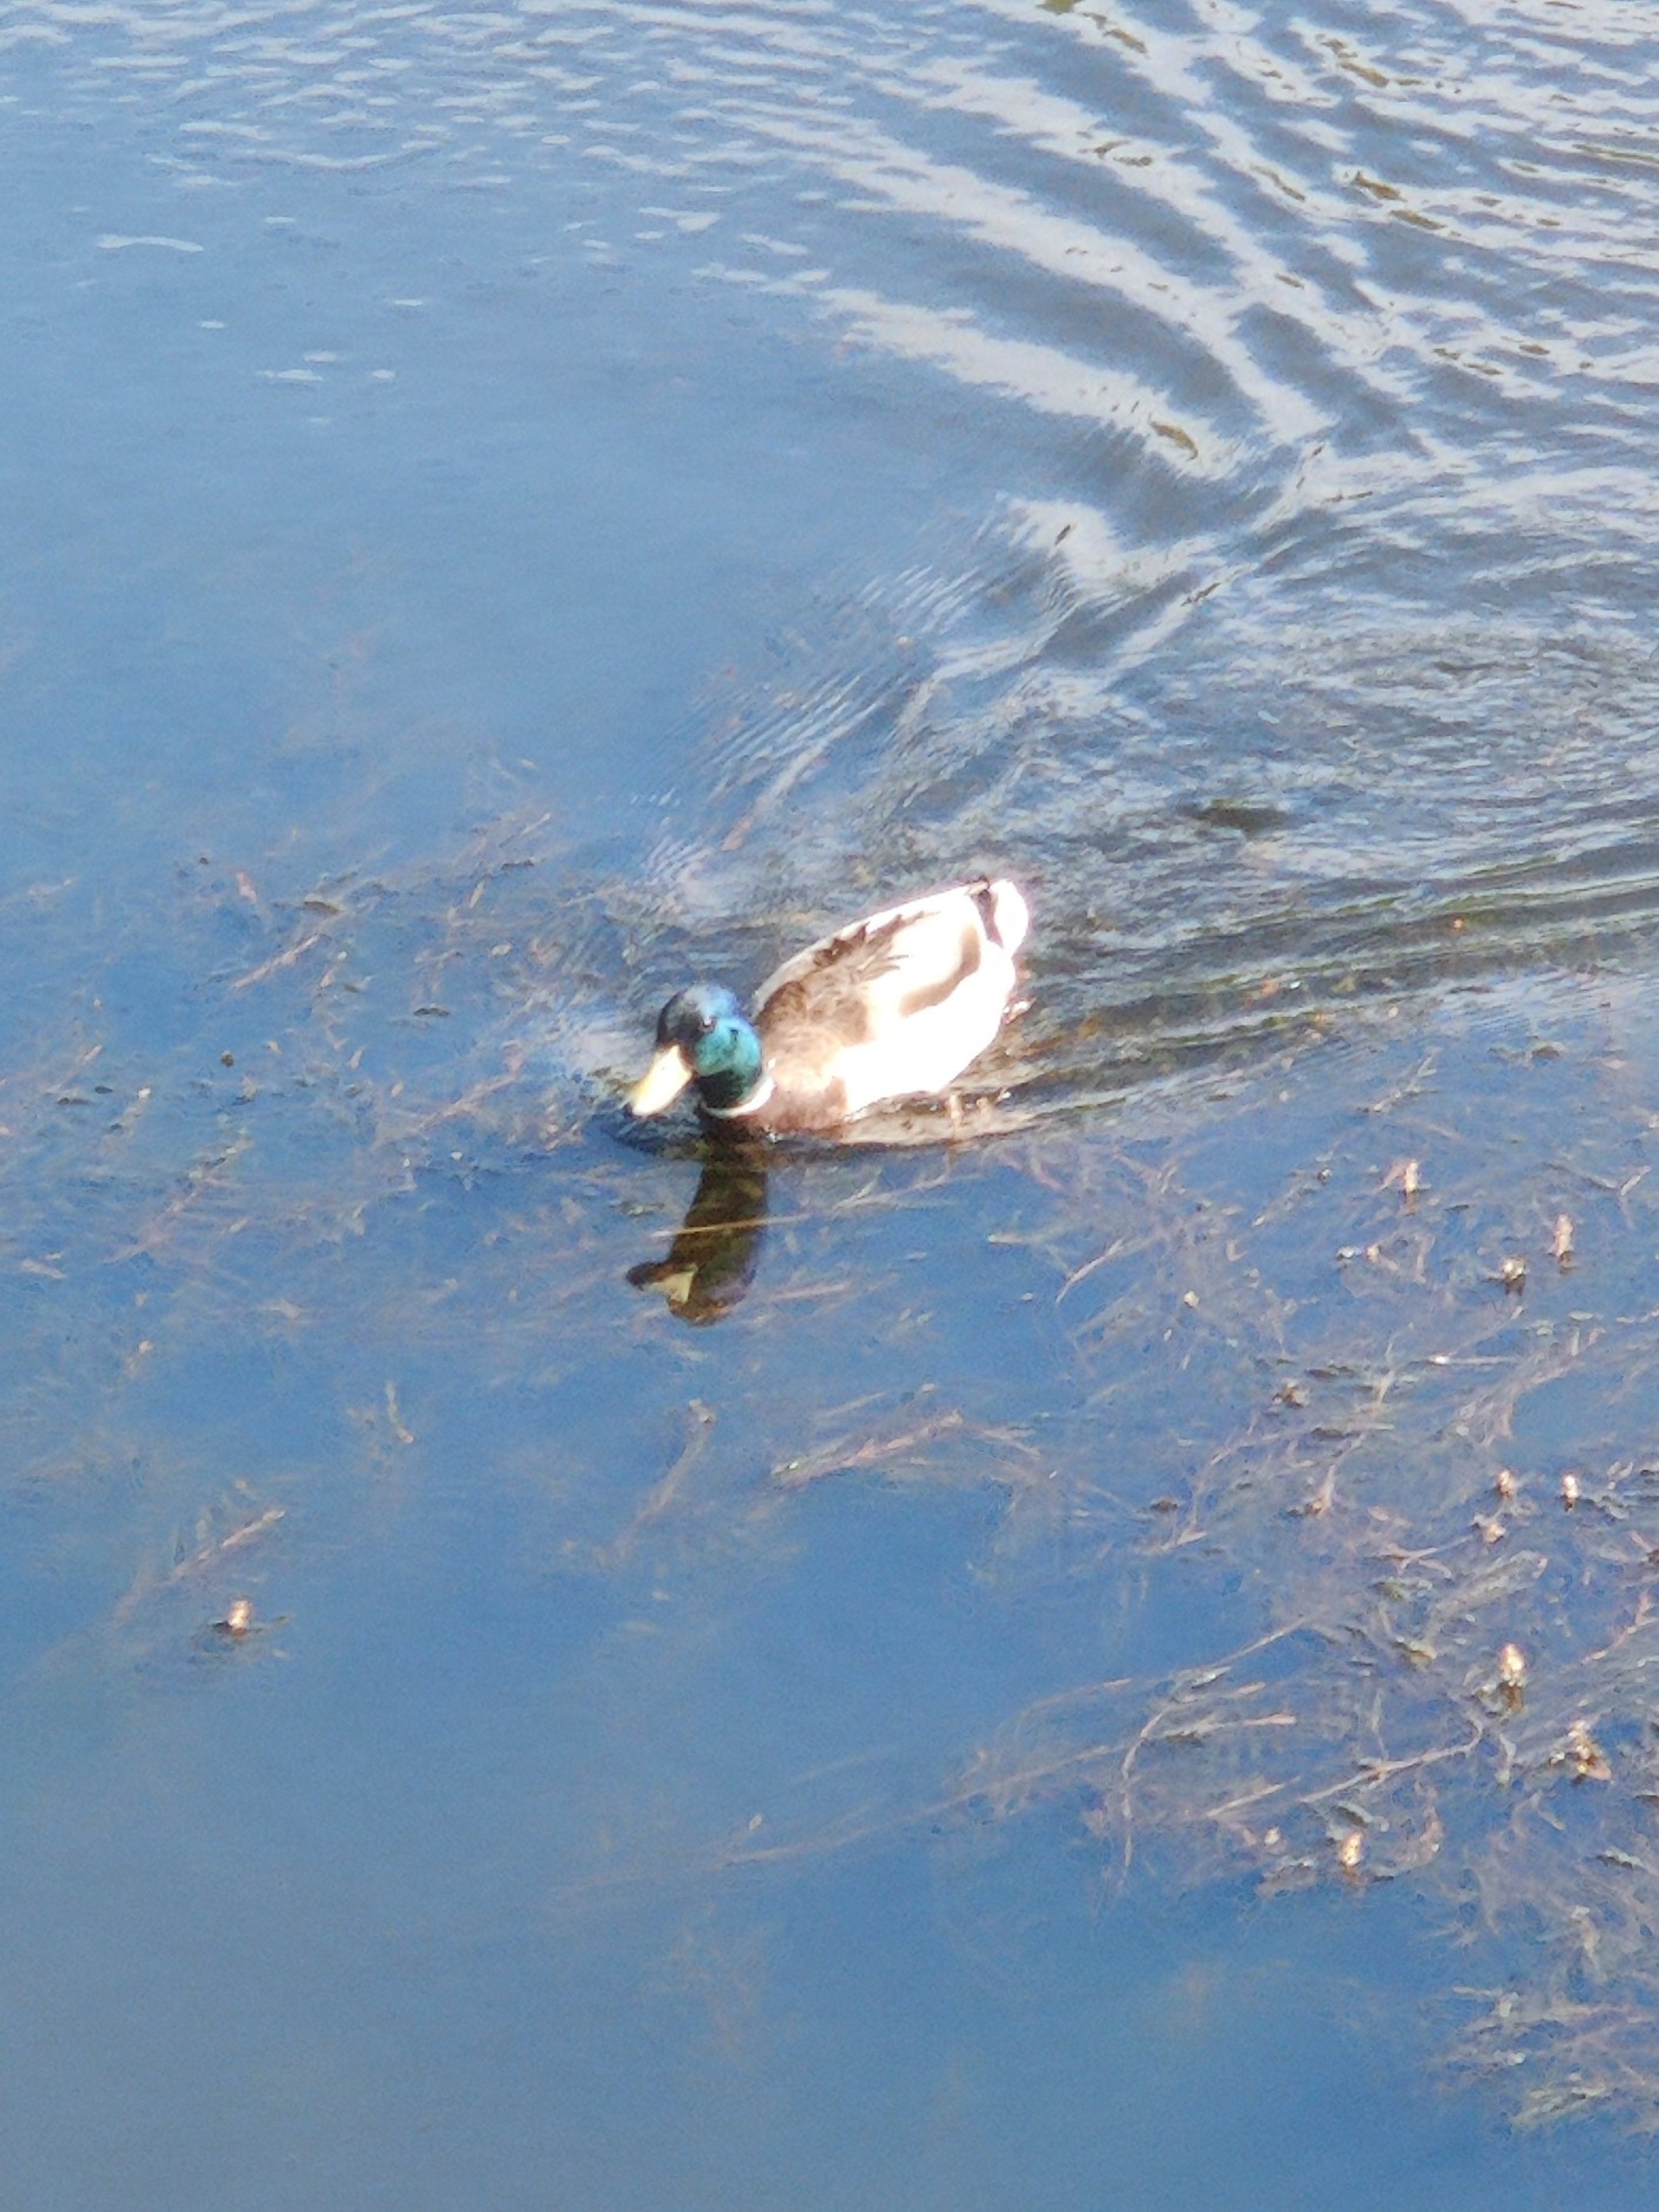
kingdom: Animalia
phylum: Chordata
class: Aves
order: Anseriformes
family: Anatidae
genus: Anas
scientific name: Anas platyrhynchos
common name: Gråand
